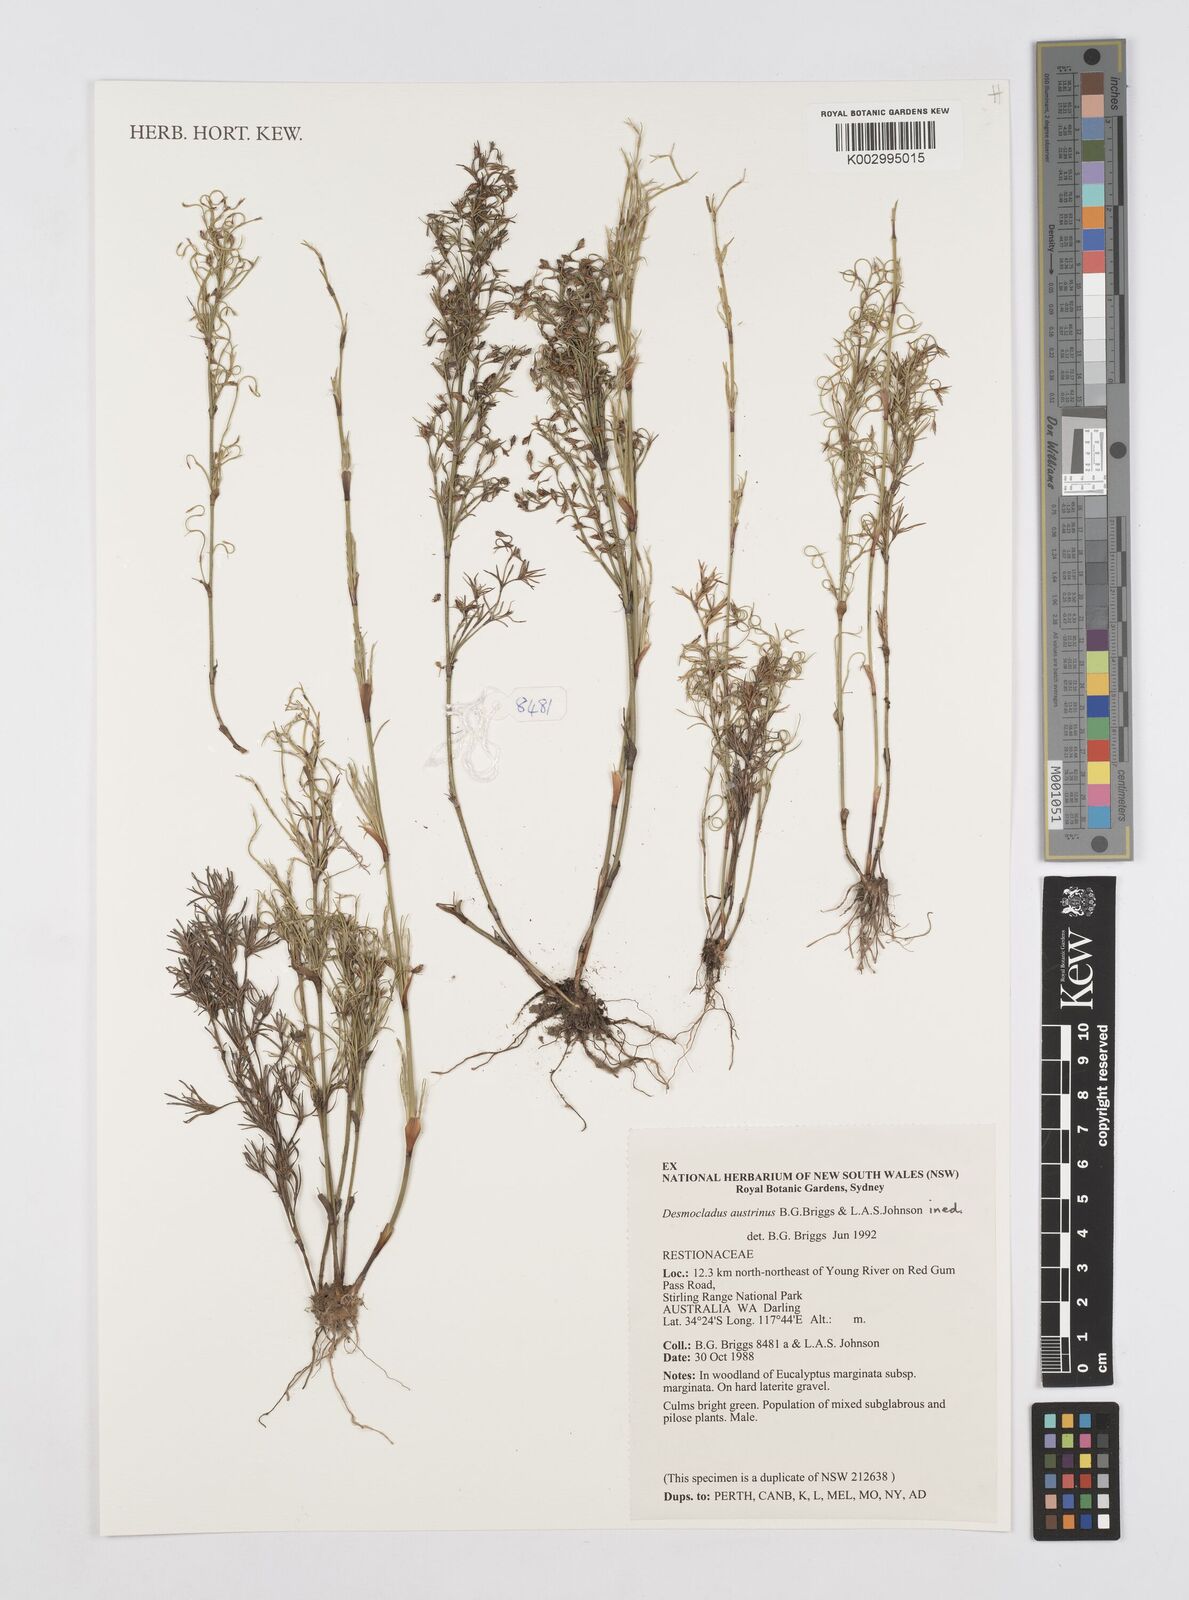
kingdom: Plantae
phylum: Tracheophyta
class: Liliopsida
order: Poales
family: Restionaceae
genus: Desmocladus
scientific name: Desmocladus austrinus
